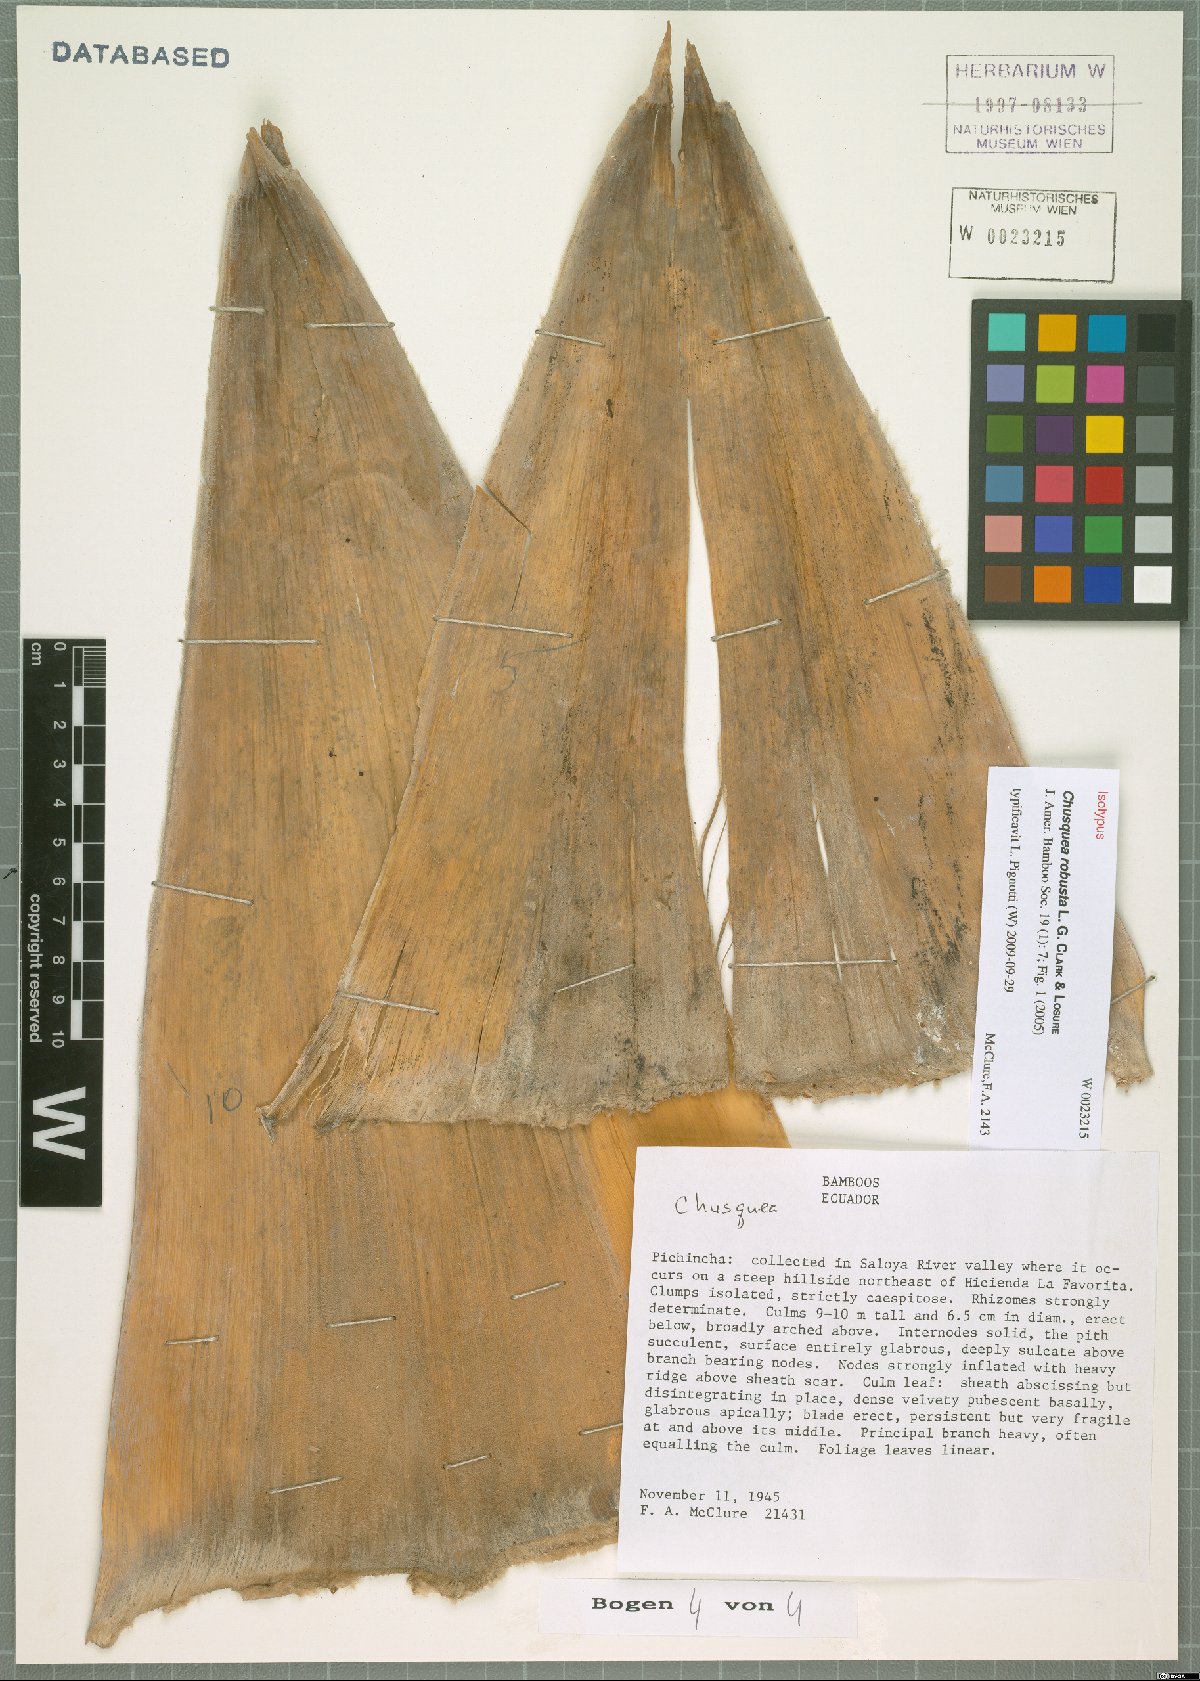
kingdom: Plantae
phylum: Tracheophyta
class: Liliopsida
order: Poales
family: Poaceae
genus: Chusquea
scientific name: Chusquea robusta
